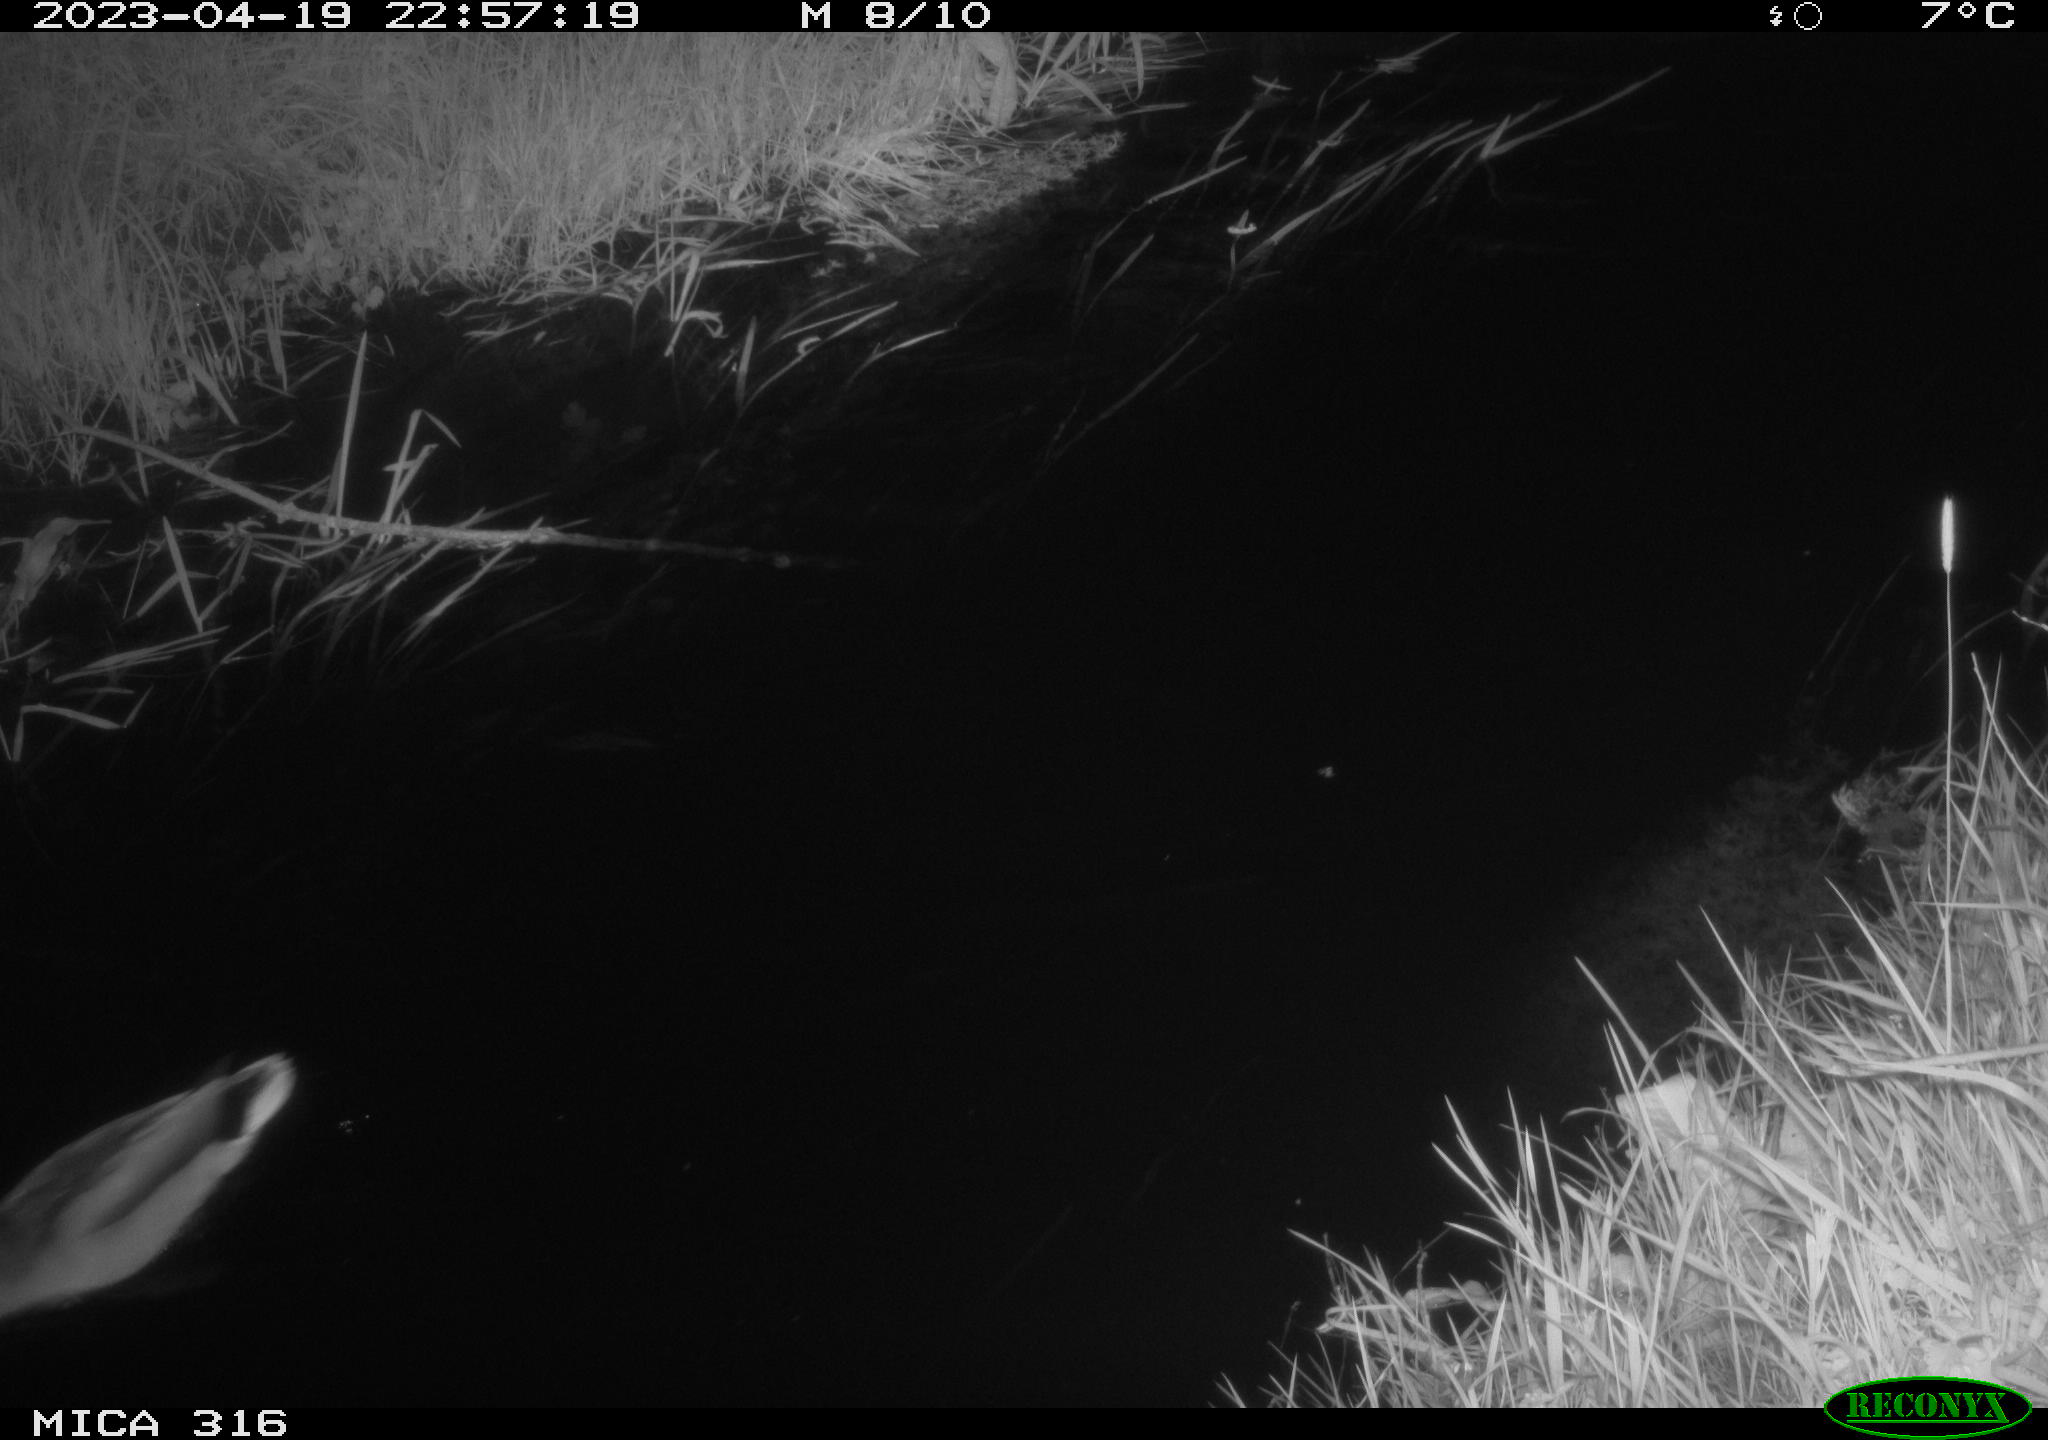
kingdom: Animalia
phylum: Chordata
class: Aves
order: Anseriformes
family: Anatidae
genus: Anas
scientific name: Anas
